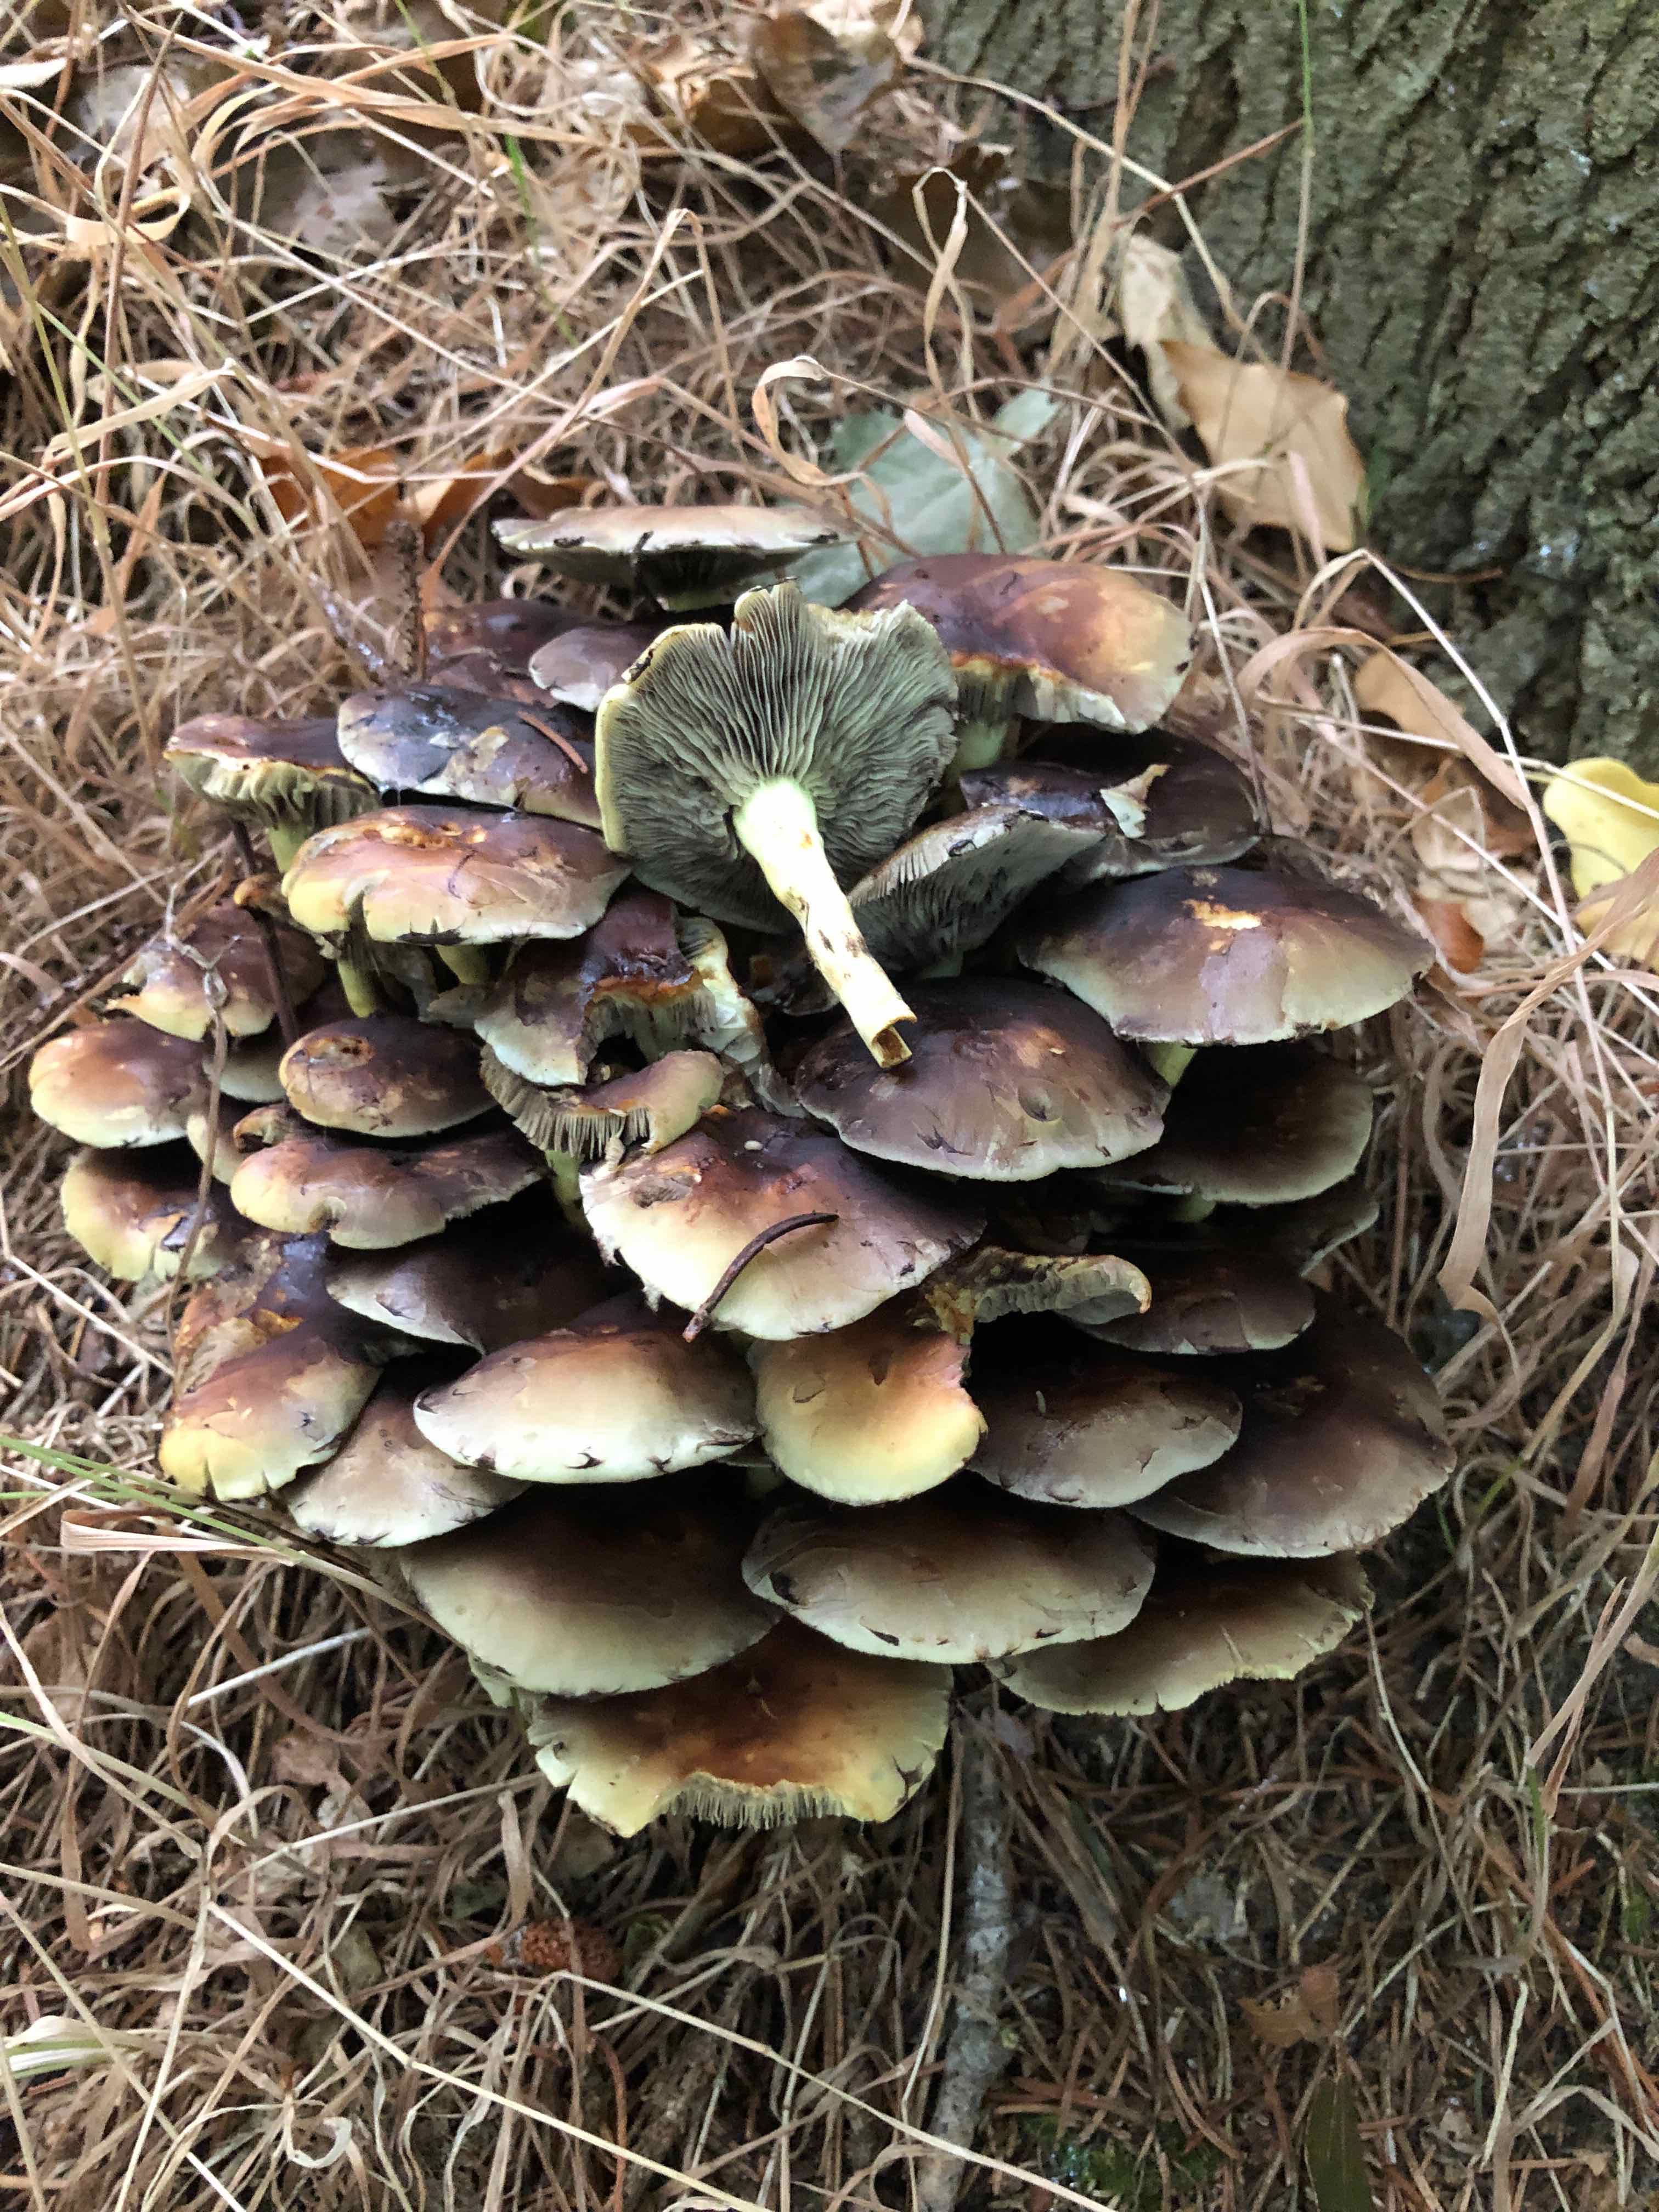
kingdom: Fungi
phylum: Basidiomycota
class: Agaricomycetes
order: Agaricales
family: Strophariaceae
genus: Hypholoma
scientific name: Hypholoma fasciculare
